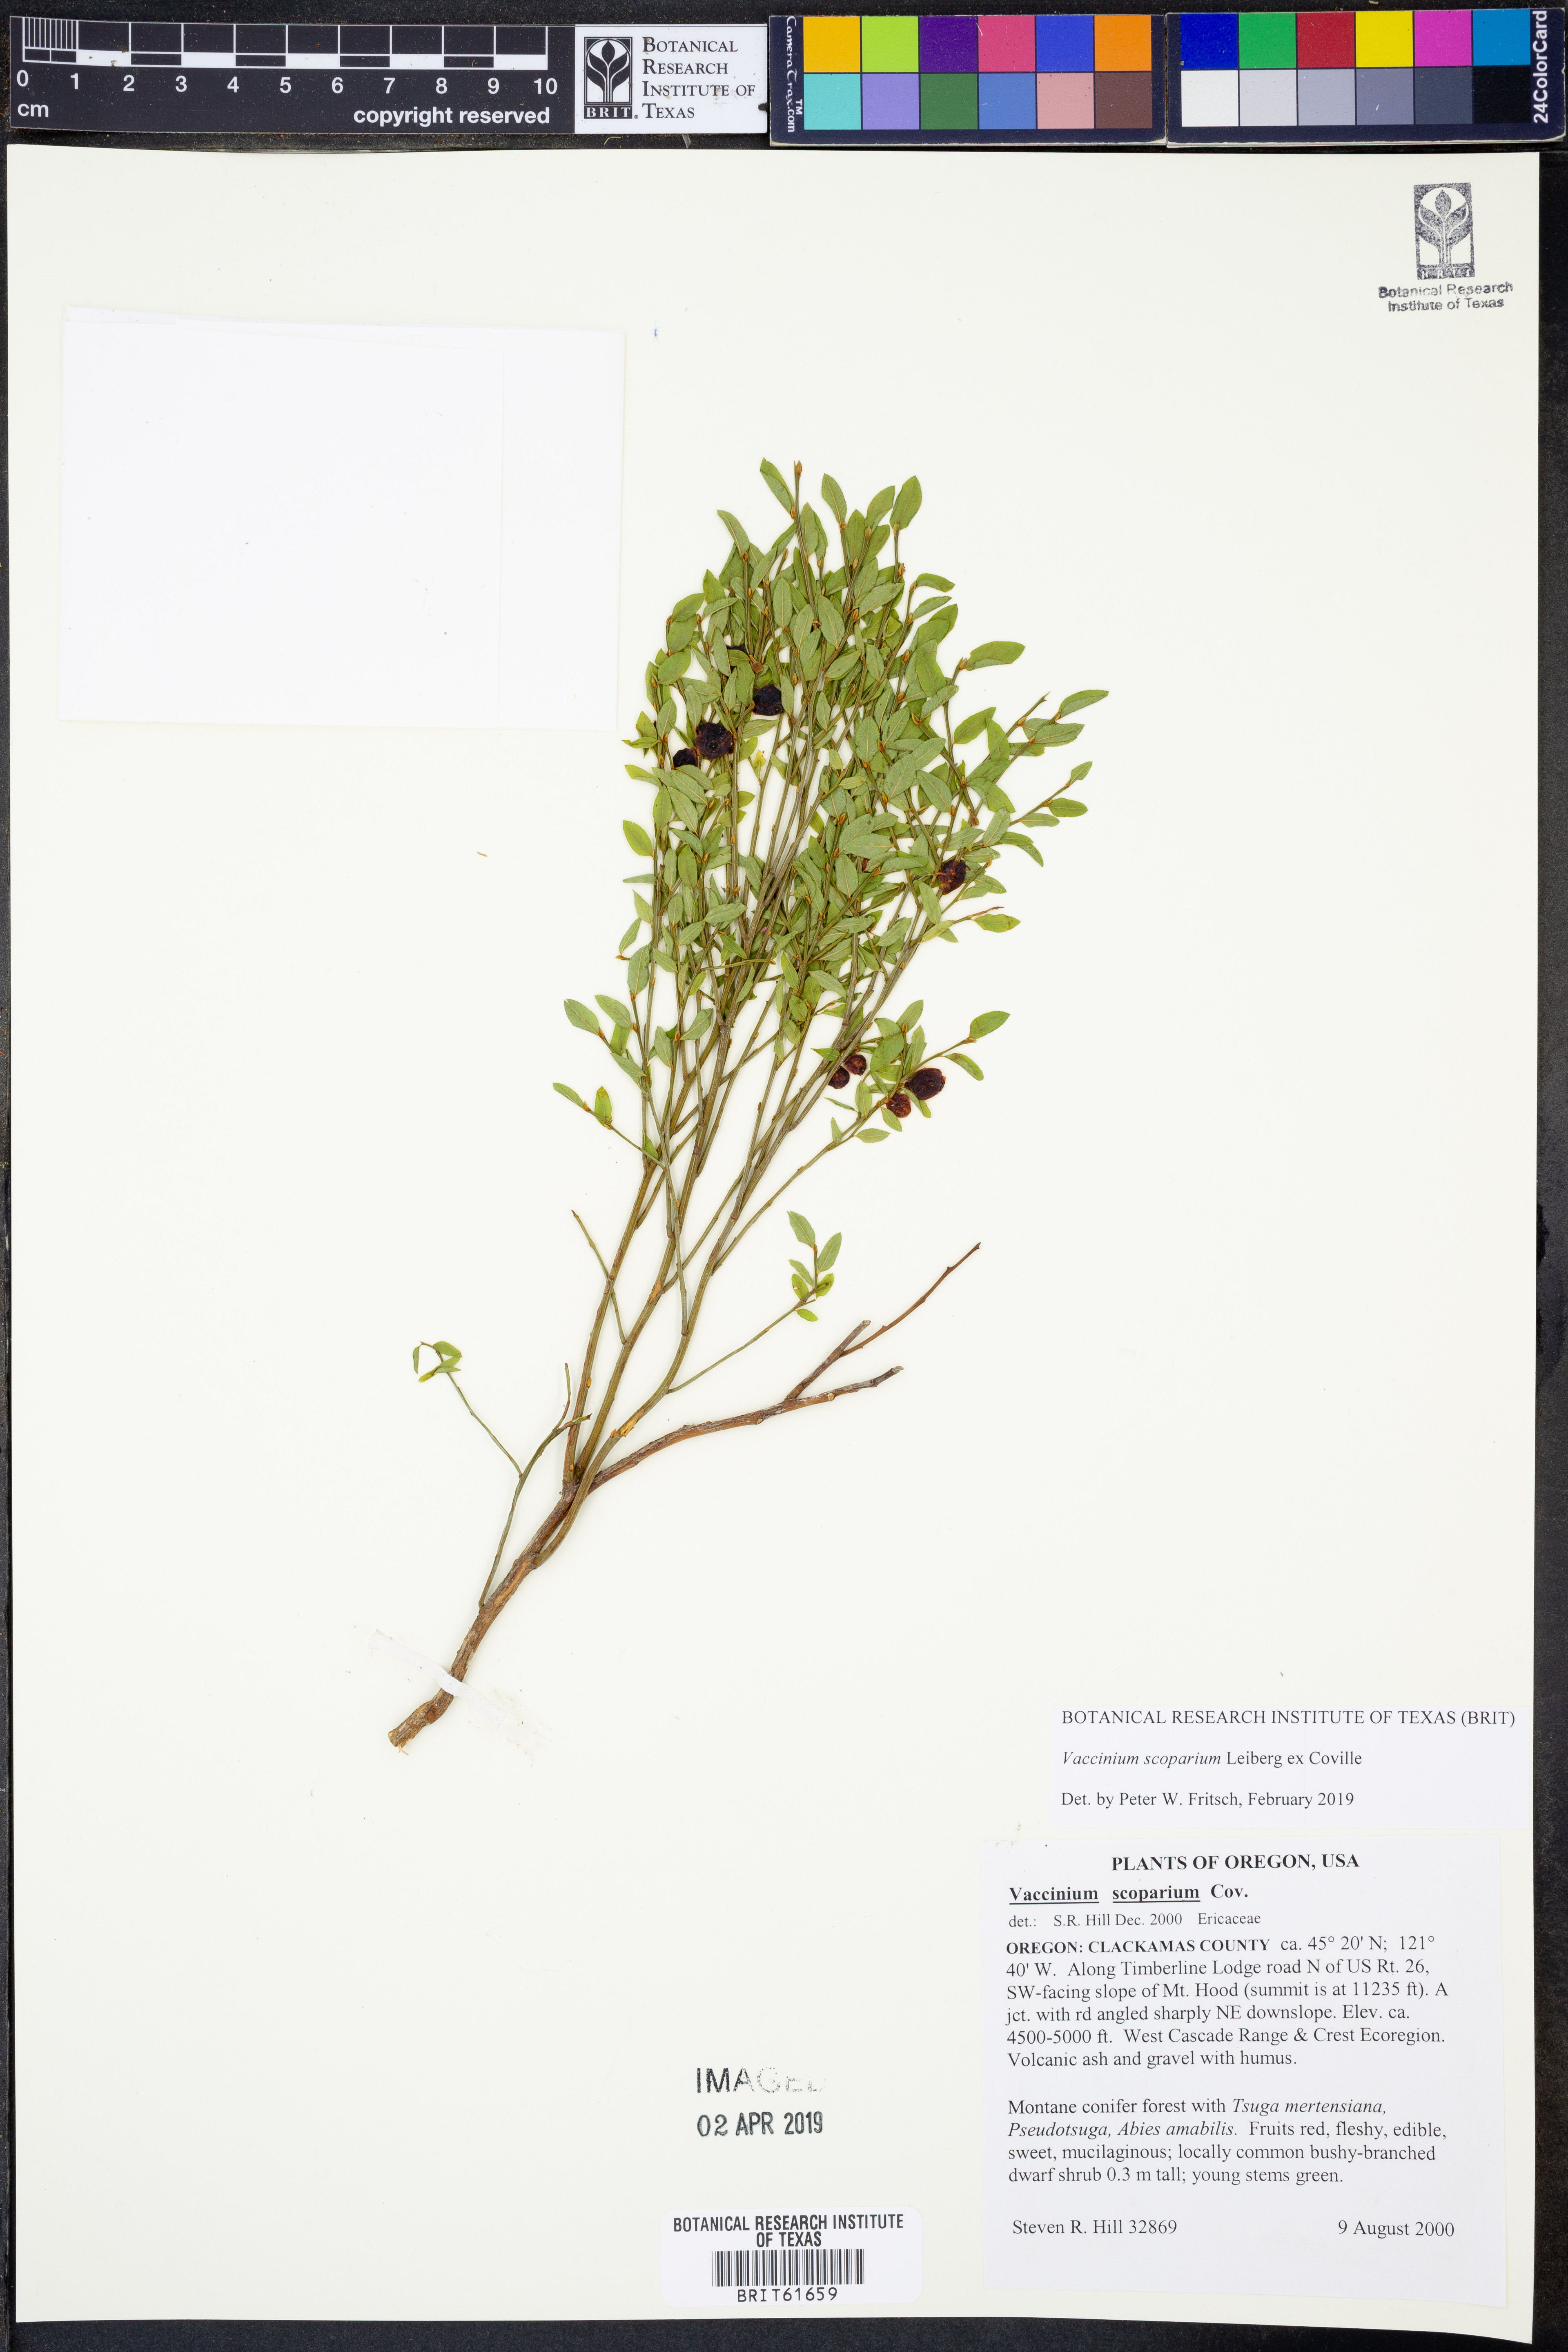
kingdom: Plantae
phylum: Tracheophyta
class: Magnoliopsida
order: Ericales
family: Ericaceae
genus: Vaccinium
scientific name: Vaccinium scoparium
